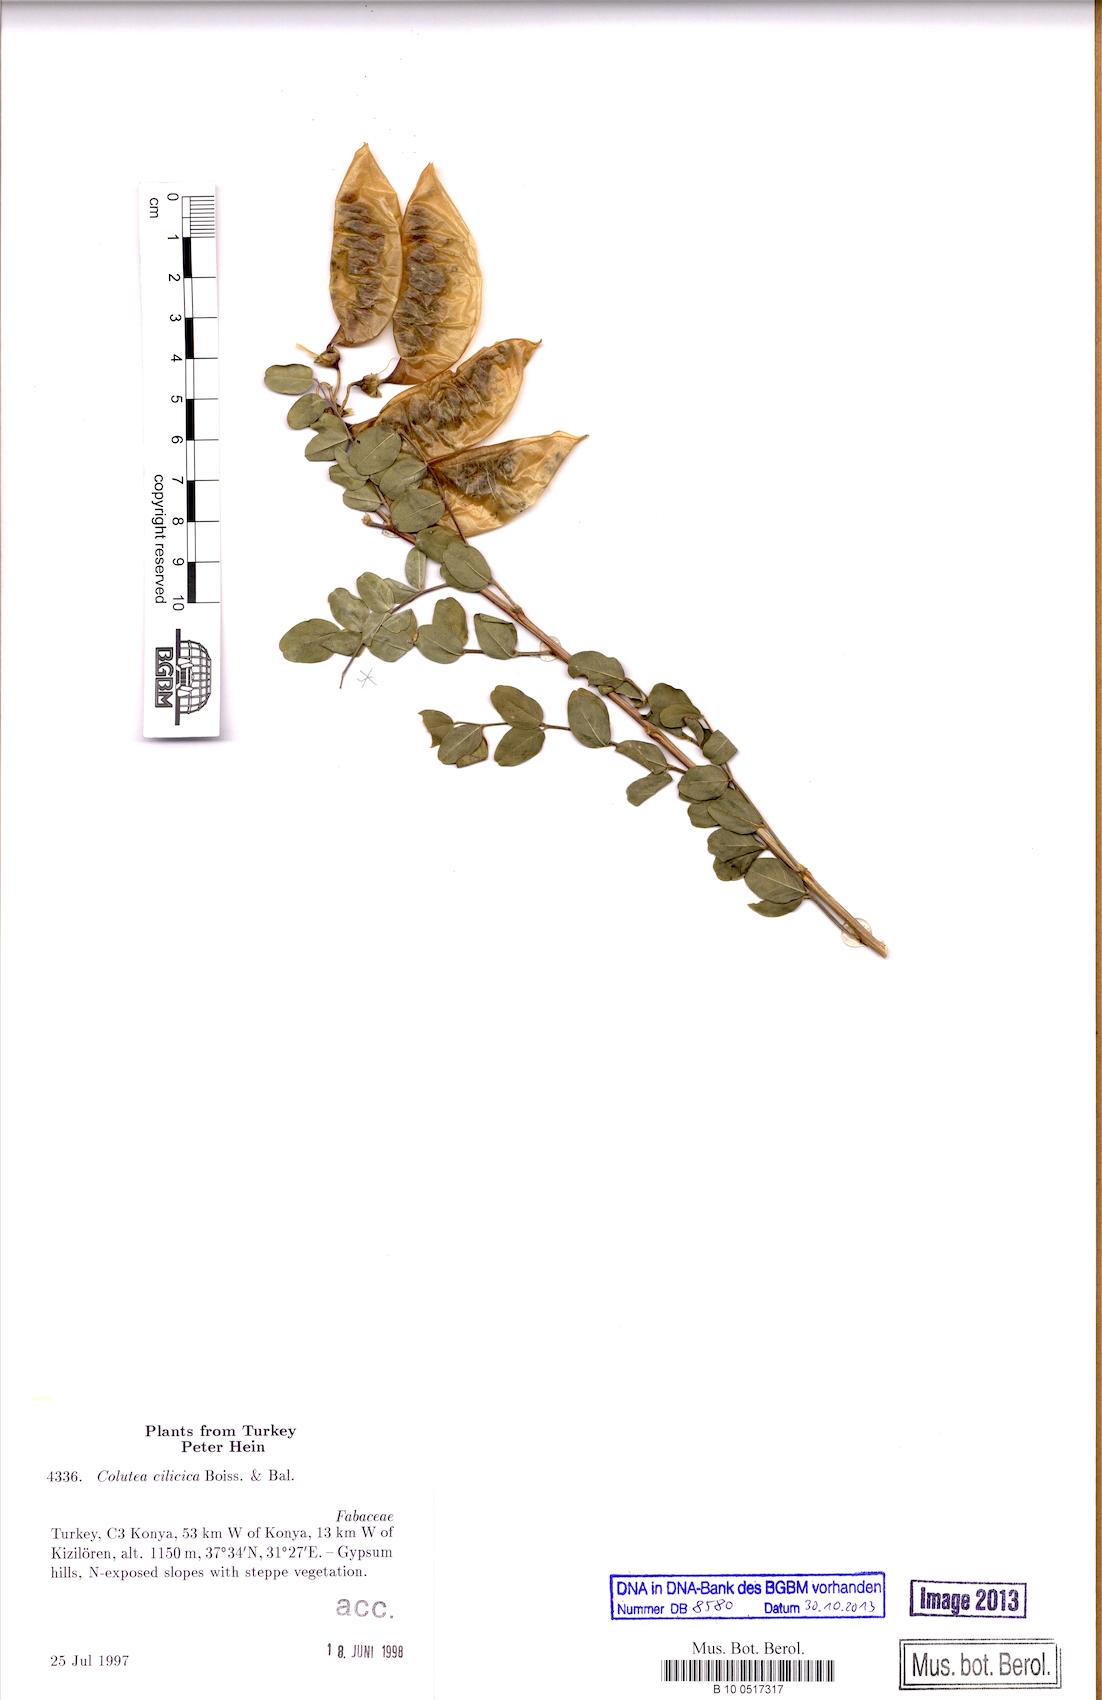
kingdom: Plantae
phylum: Tracheophyta
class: Magnoliopsida
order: Fabales
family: Fabaceae
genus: Colutea
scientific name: Colutea cilicica
